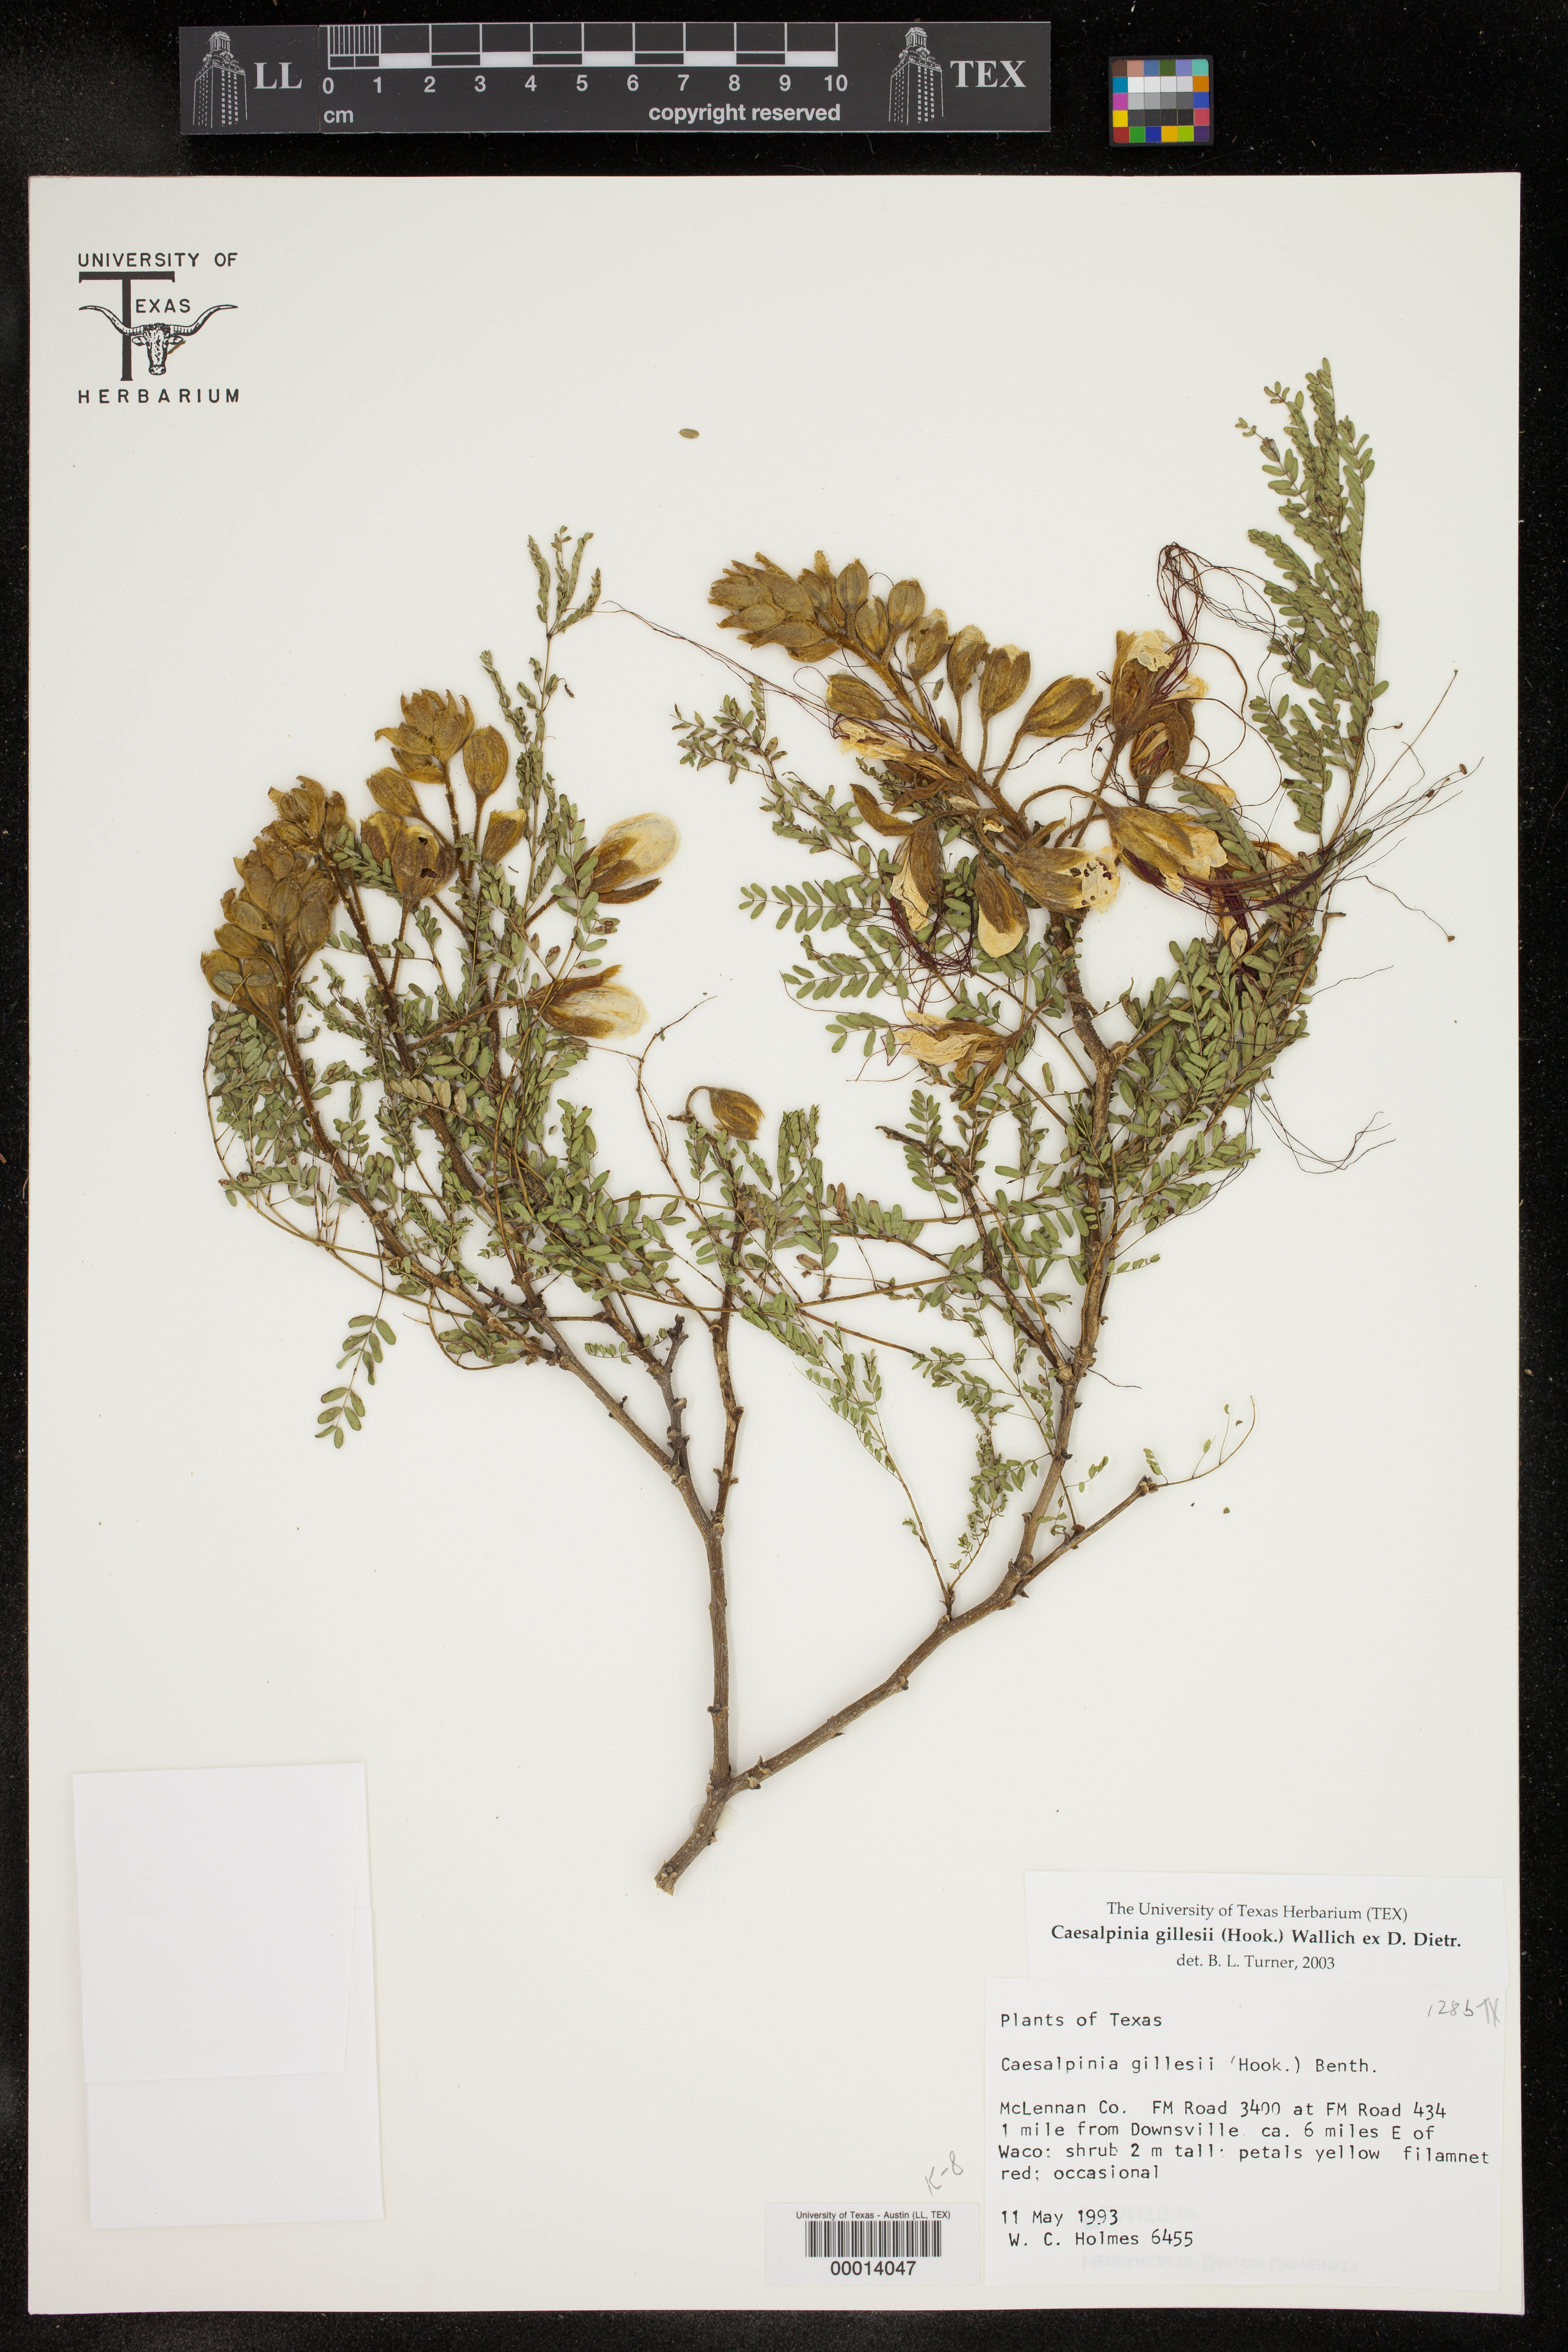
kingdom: Plantae
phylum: Tracheophyta
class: Magnoliopsida
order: Fabales
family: Fabaceae
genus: Erythrostemon
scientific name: Erythrostemon
